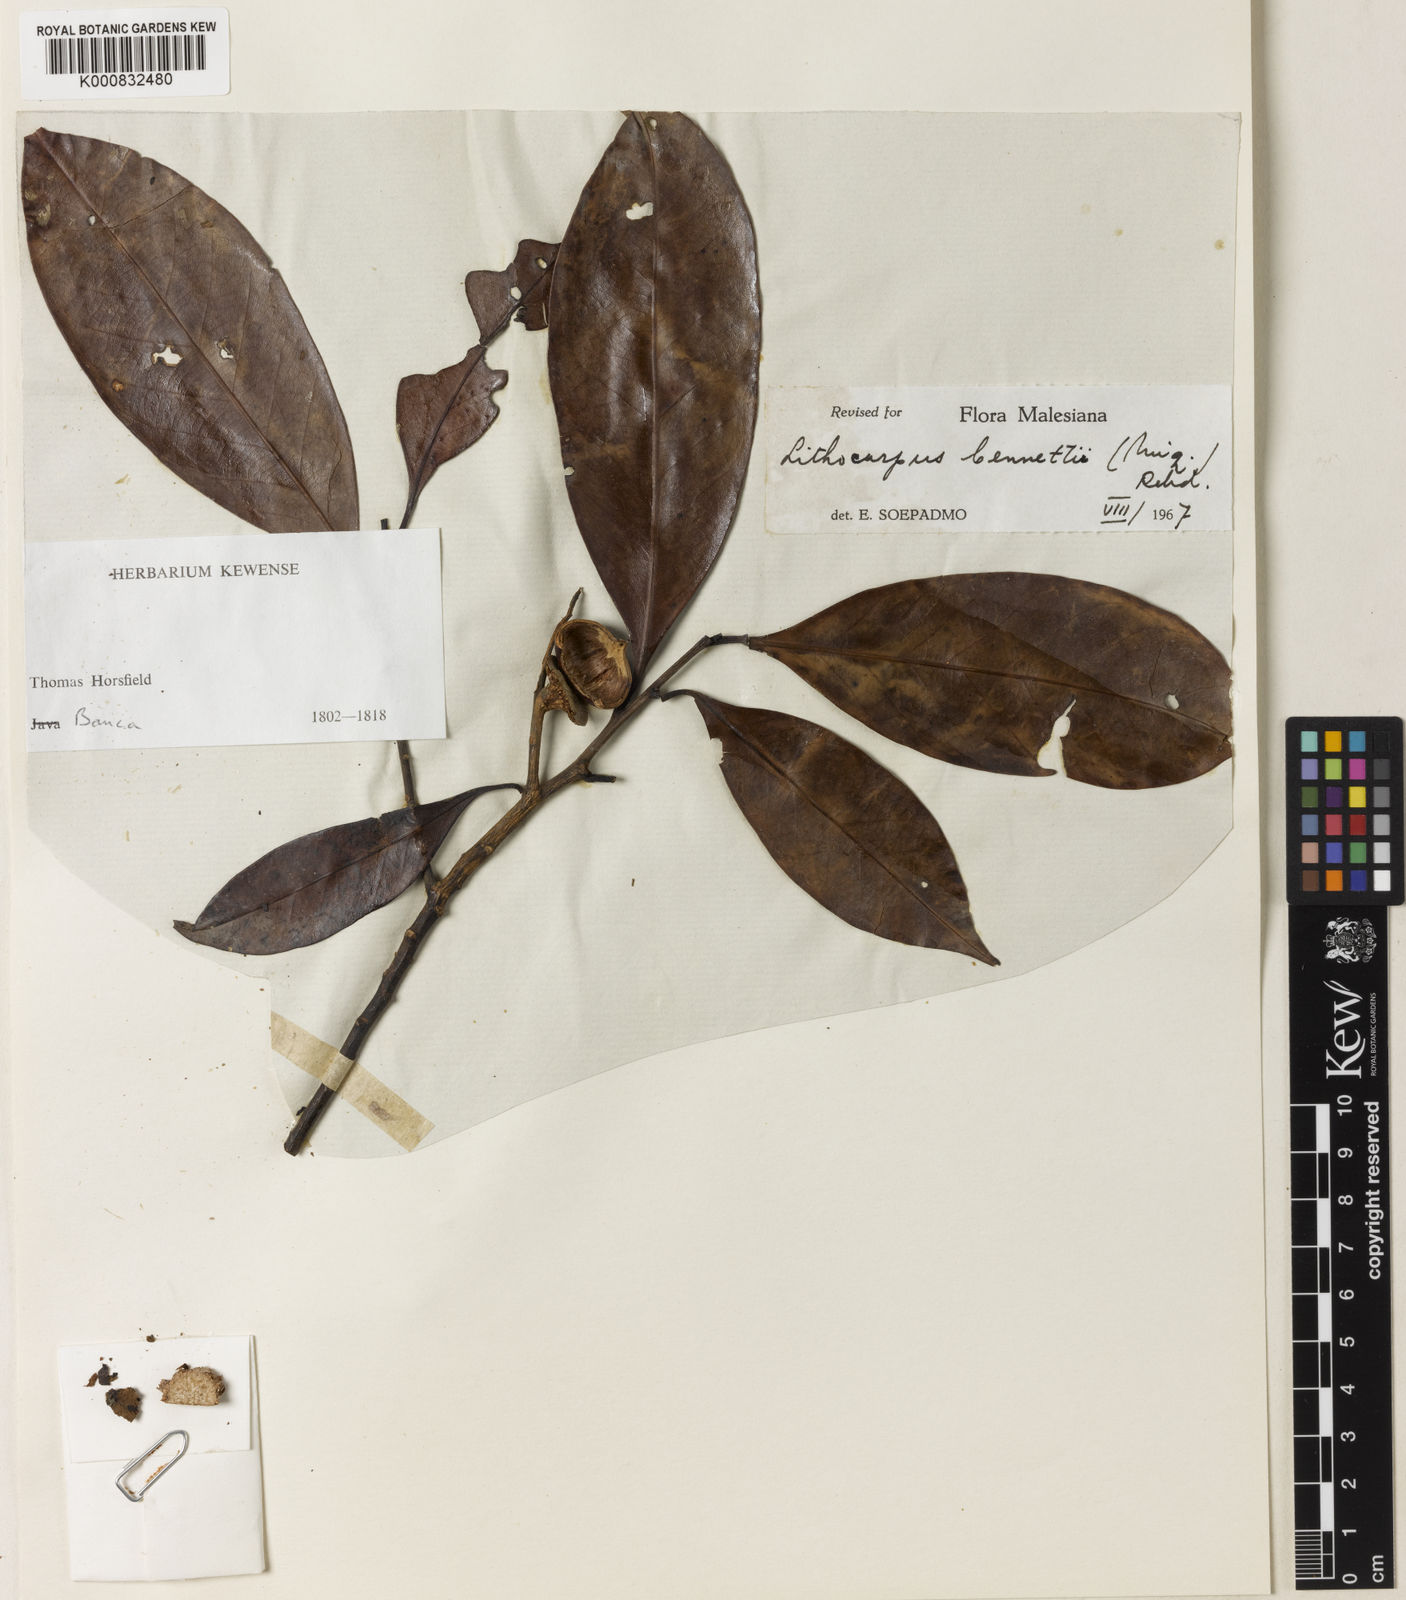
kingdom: Plantae
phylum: Tracheophyta
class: Magnoliopsida
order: Fagales
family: Fagaceae
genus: Lithocarpus
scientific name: Lithocarpus bennettii
